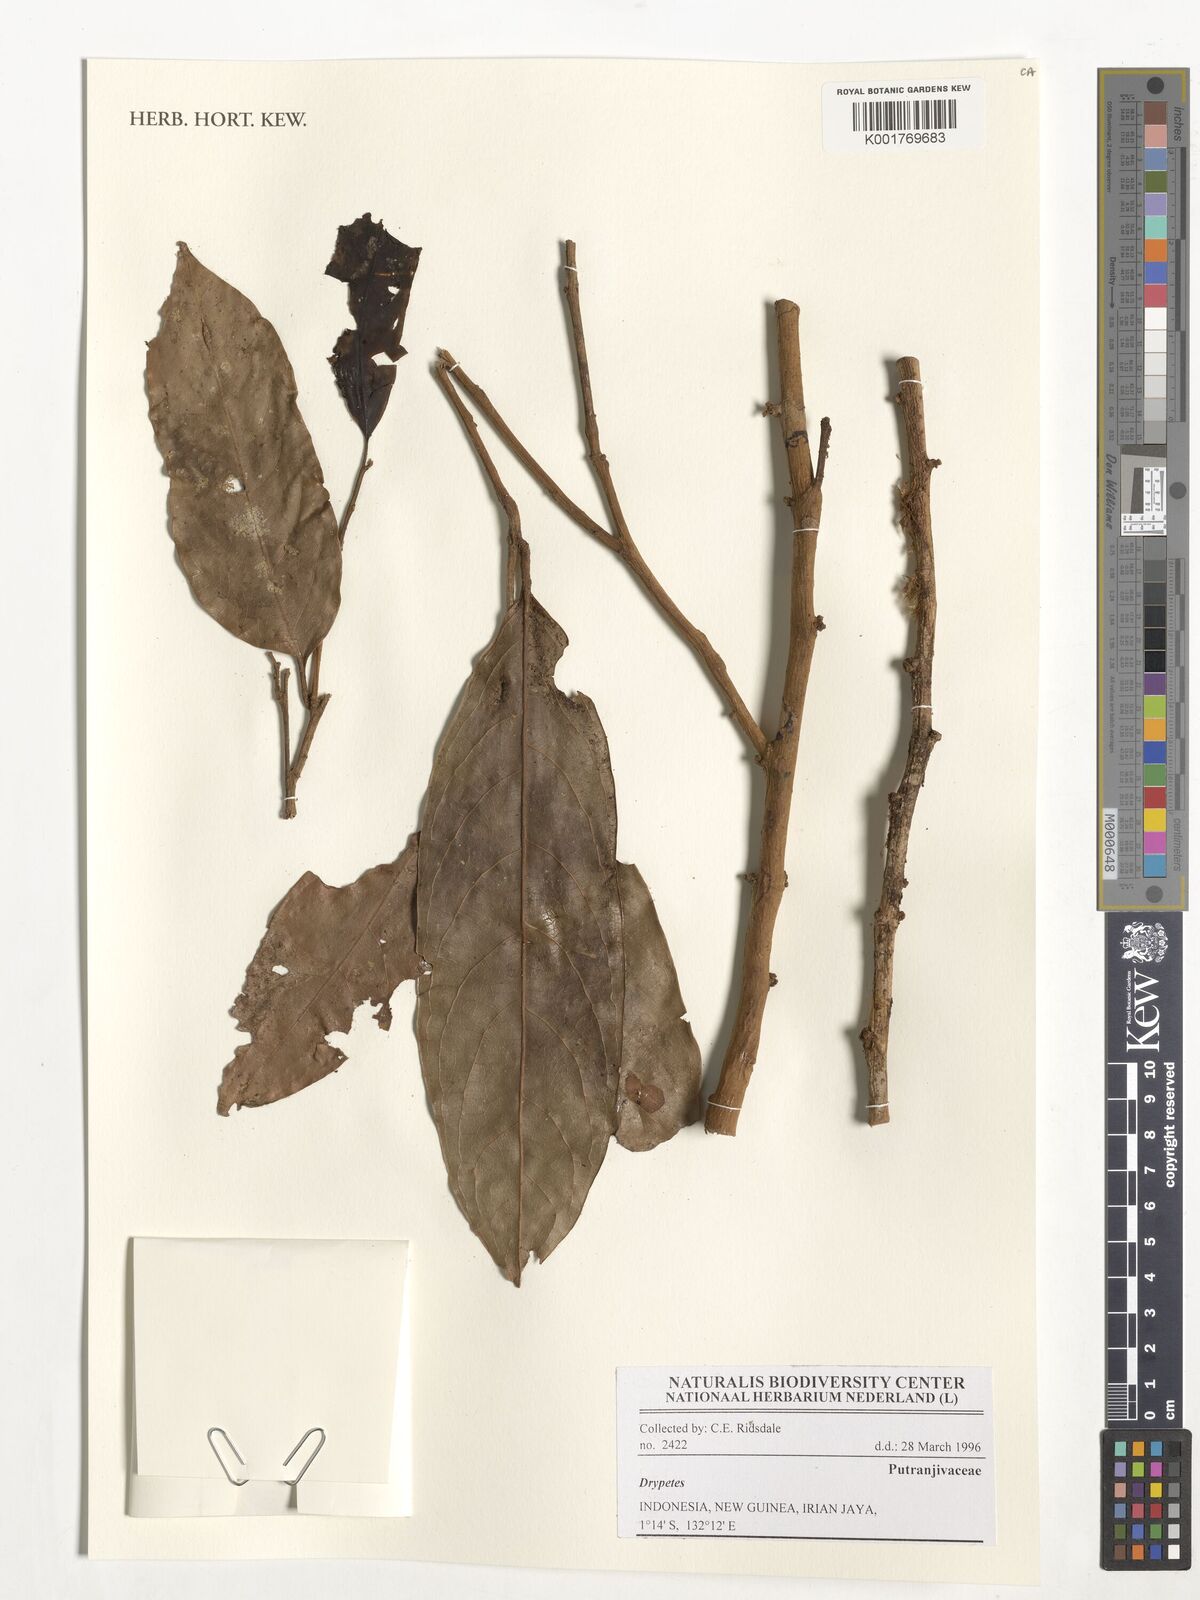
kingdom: Plantae
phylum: Tracheophyta
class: Magnoliopsida
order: Malpighiales
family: Putranjivaceae
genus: Drypetes
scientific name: Drypetes
